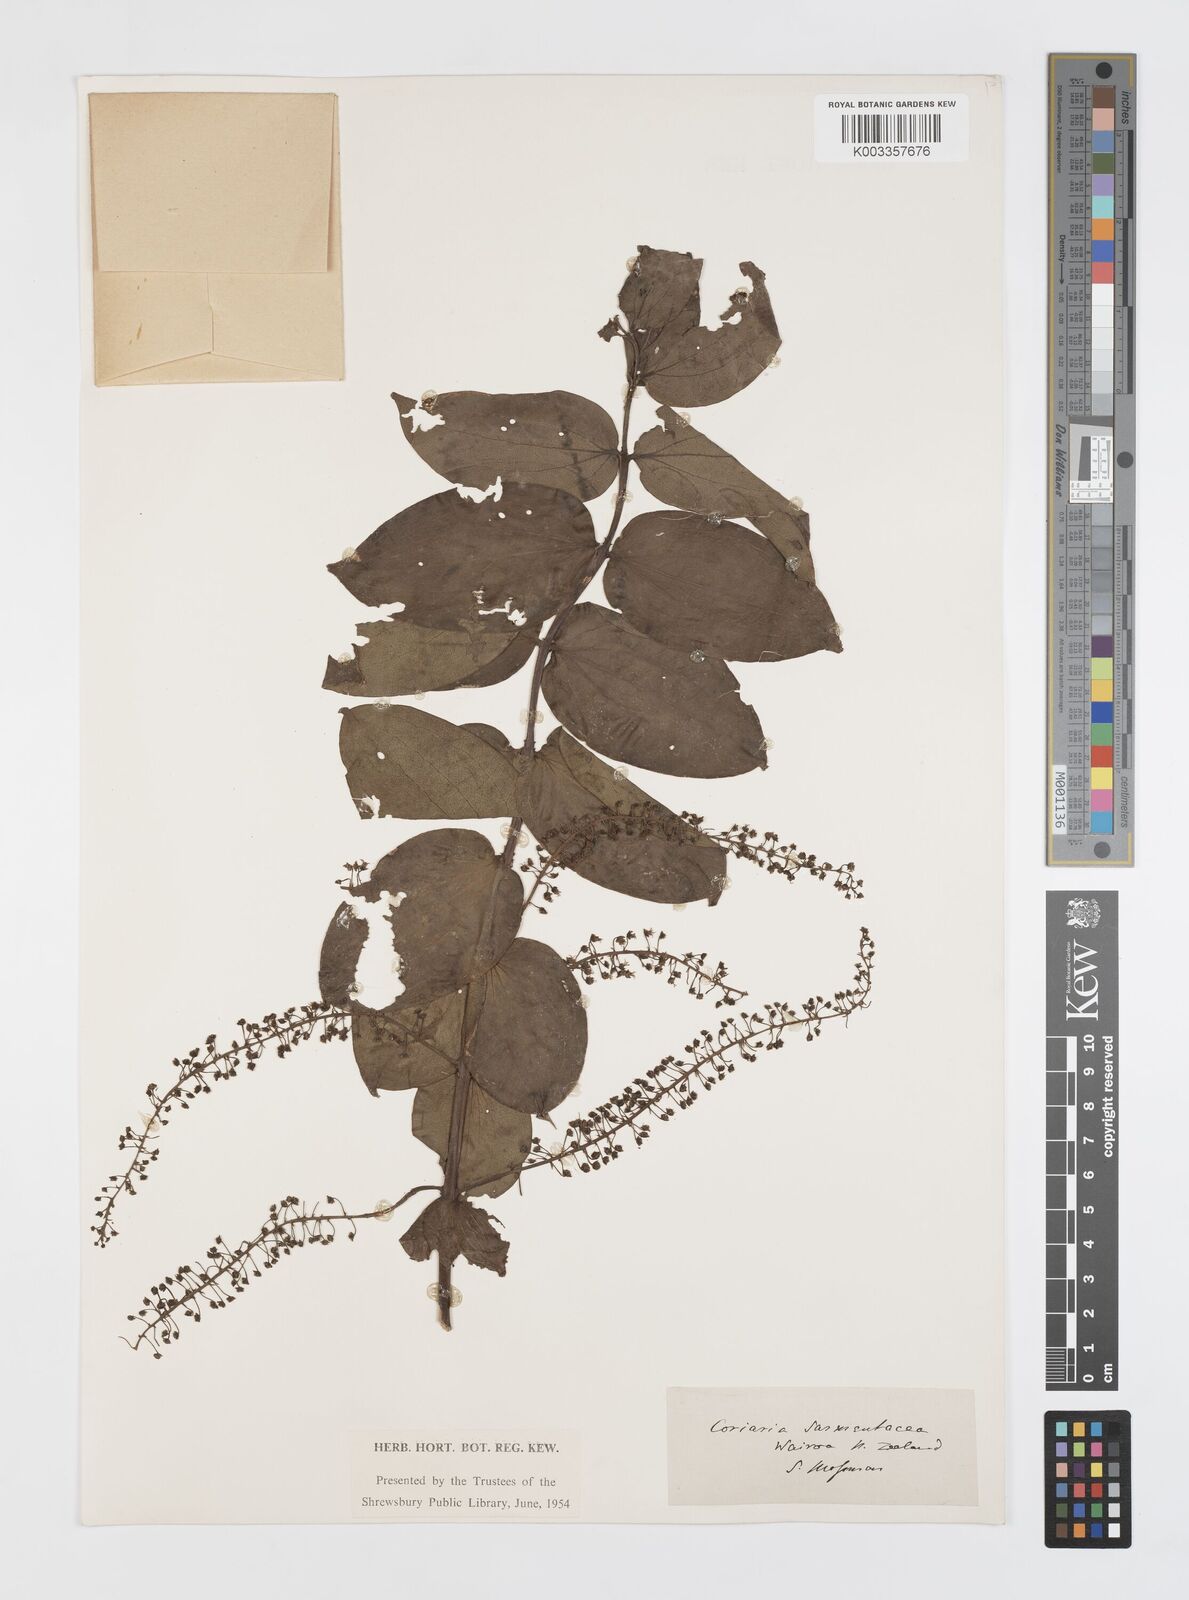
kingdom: Plantae
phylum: Tracheophyta
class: Magnoliopsida
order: Cucurbitales
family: Coriariaceae
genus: Coriaria
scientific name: Coriaria ruscifolia
